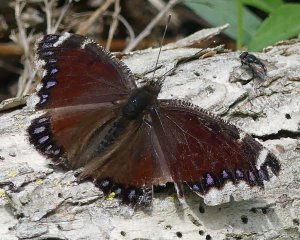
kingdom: Animalia
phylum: Arthropoda
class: Insecta
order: Lepidoptera
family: Nymphalidae
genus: Nymphalis
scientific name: Nymphalis antiopa
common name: Mourning Cloak
